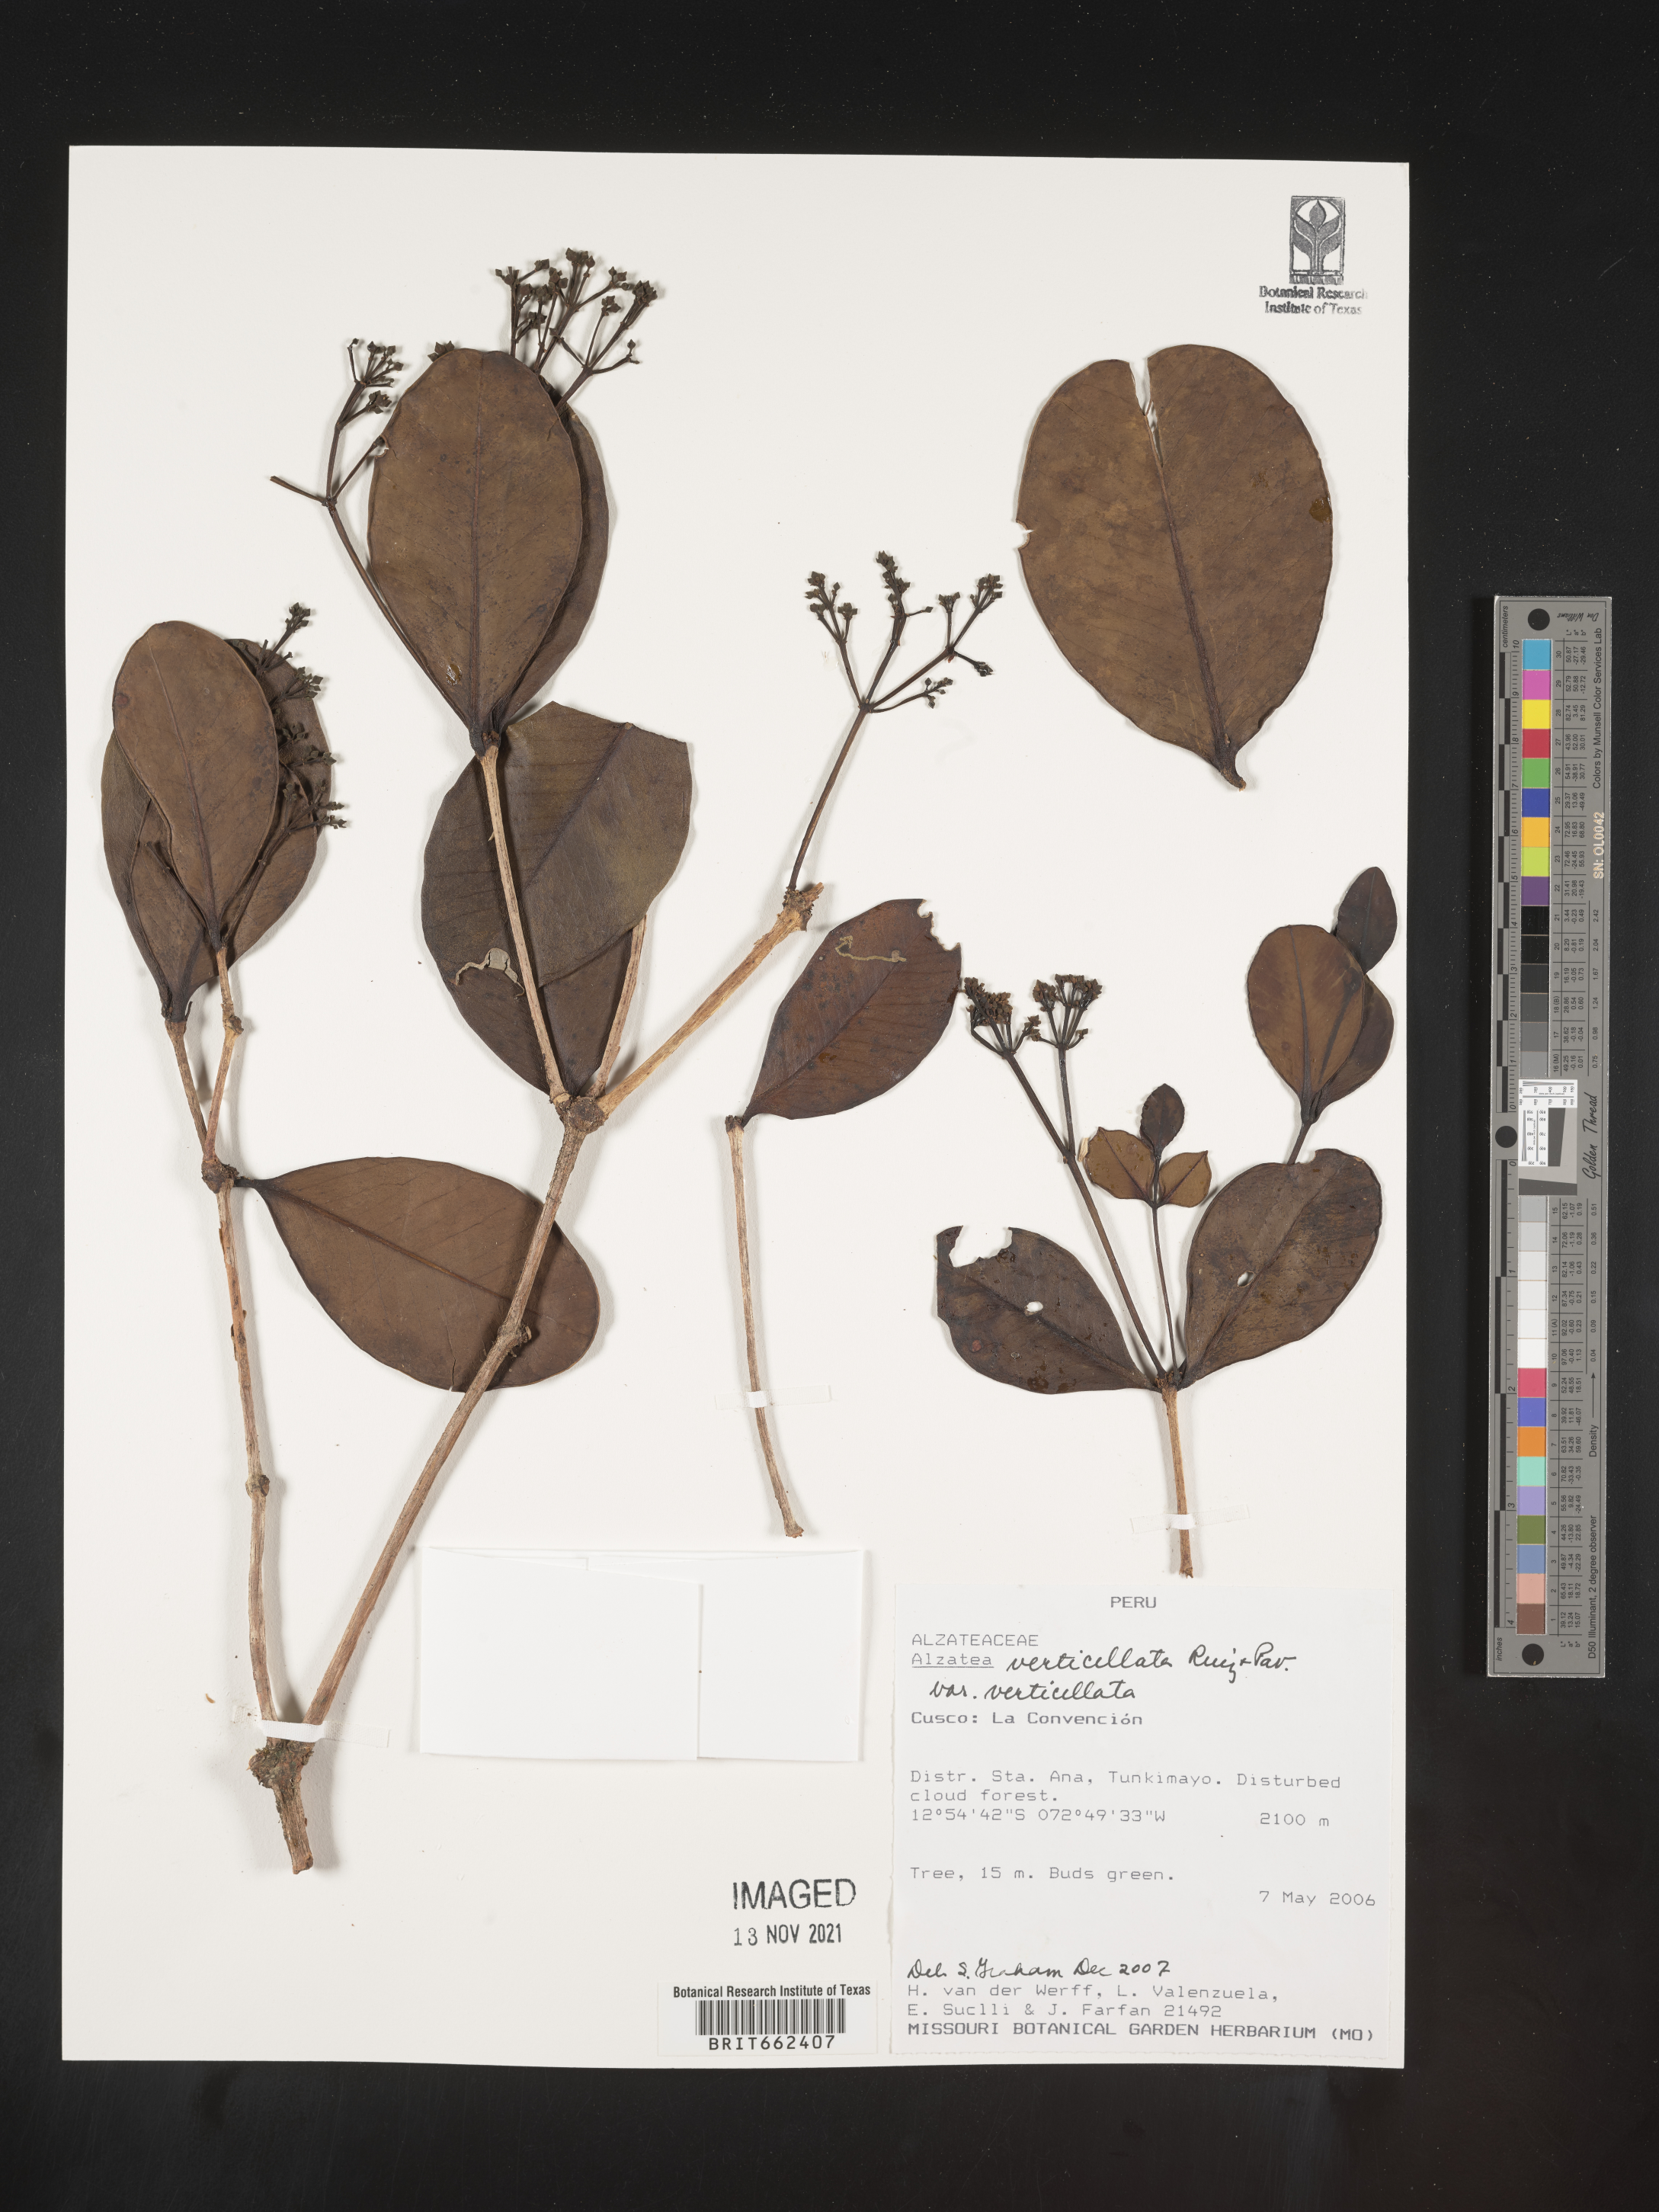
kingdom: Plantae
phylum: Tracheophyta
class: Magnoliopsida
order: Myrtales
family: Alzateaceae
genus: Alzatea
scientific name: Alzatea
